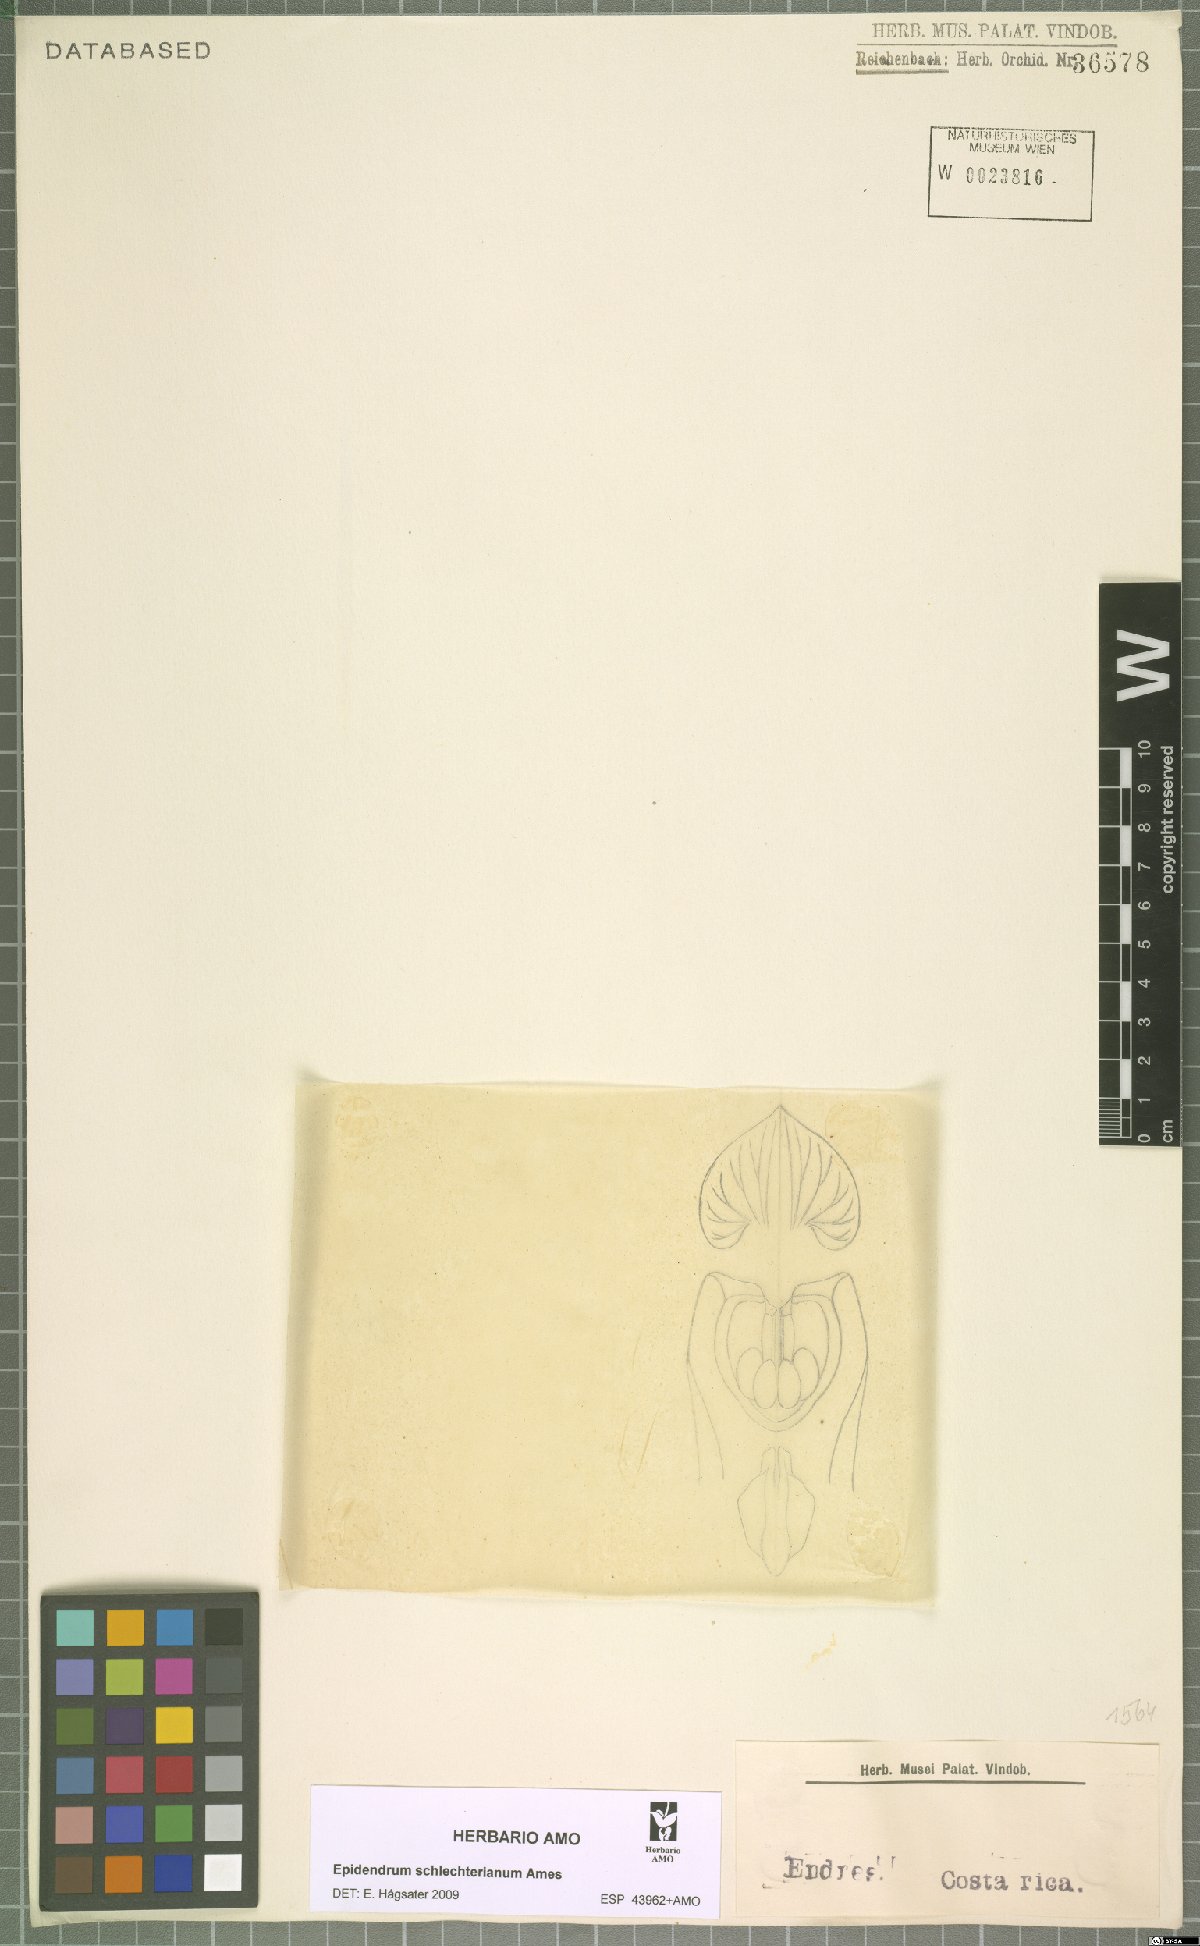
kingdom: Plantae
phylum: Tracheophyta
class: Liliopsida
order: Asparagales
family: Orchidaceae
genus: Epidendrum
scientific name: Epidendrum schlechterianum
